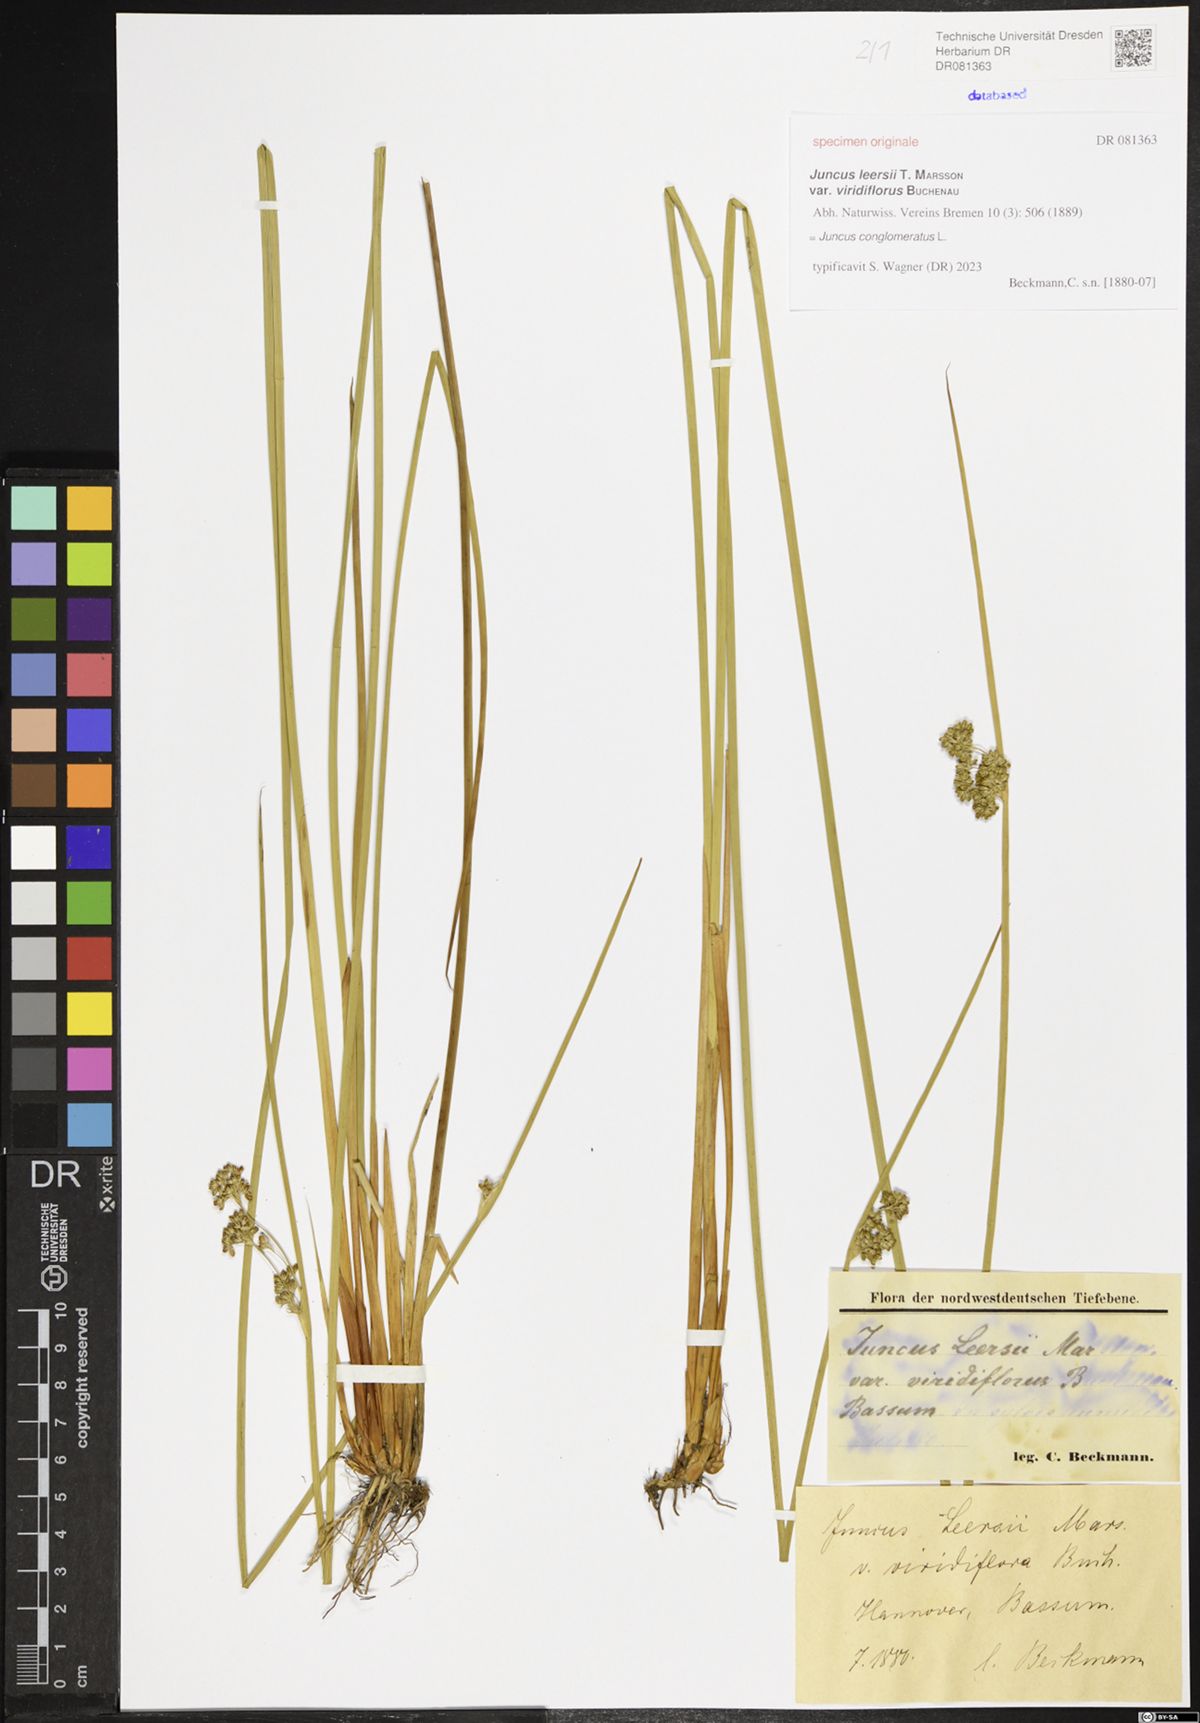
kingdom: Plantae
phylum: Tracheophyta
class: Liliopsida
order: Poales
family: Juncaceae
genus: Juncus
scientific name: Juncus conglomeratus
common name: Compact rush
